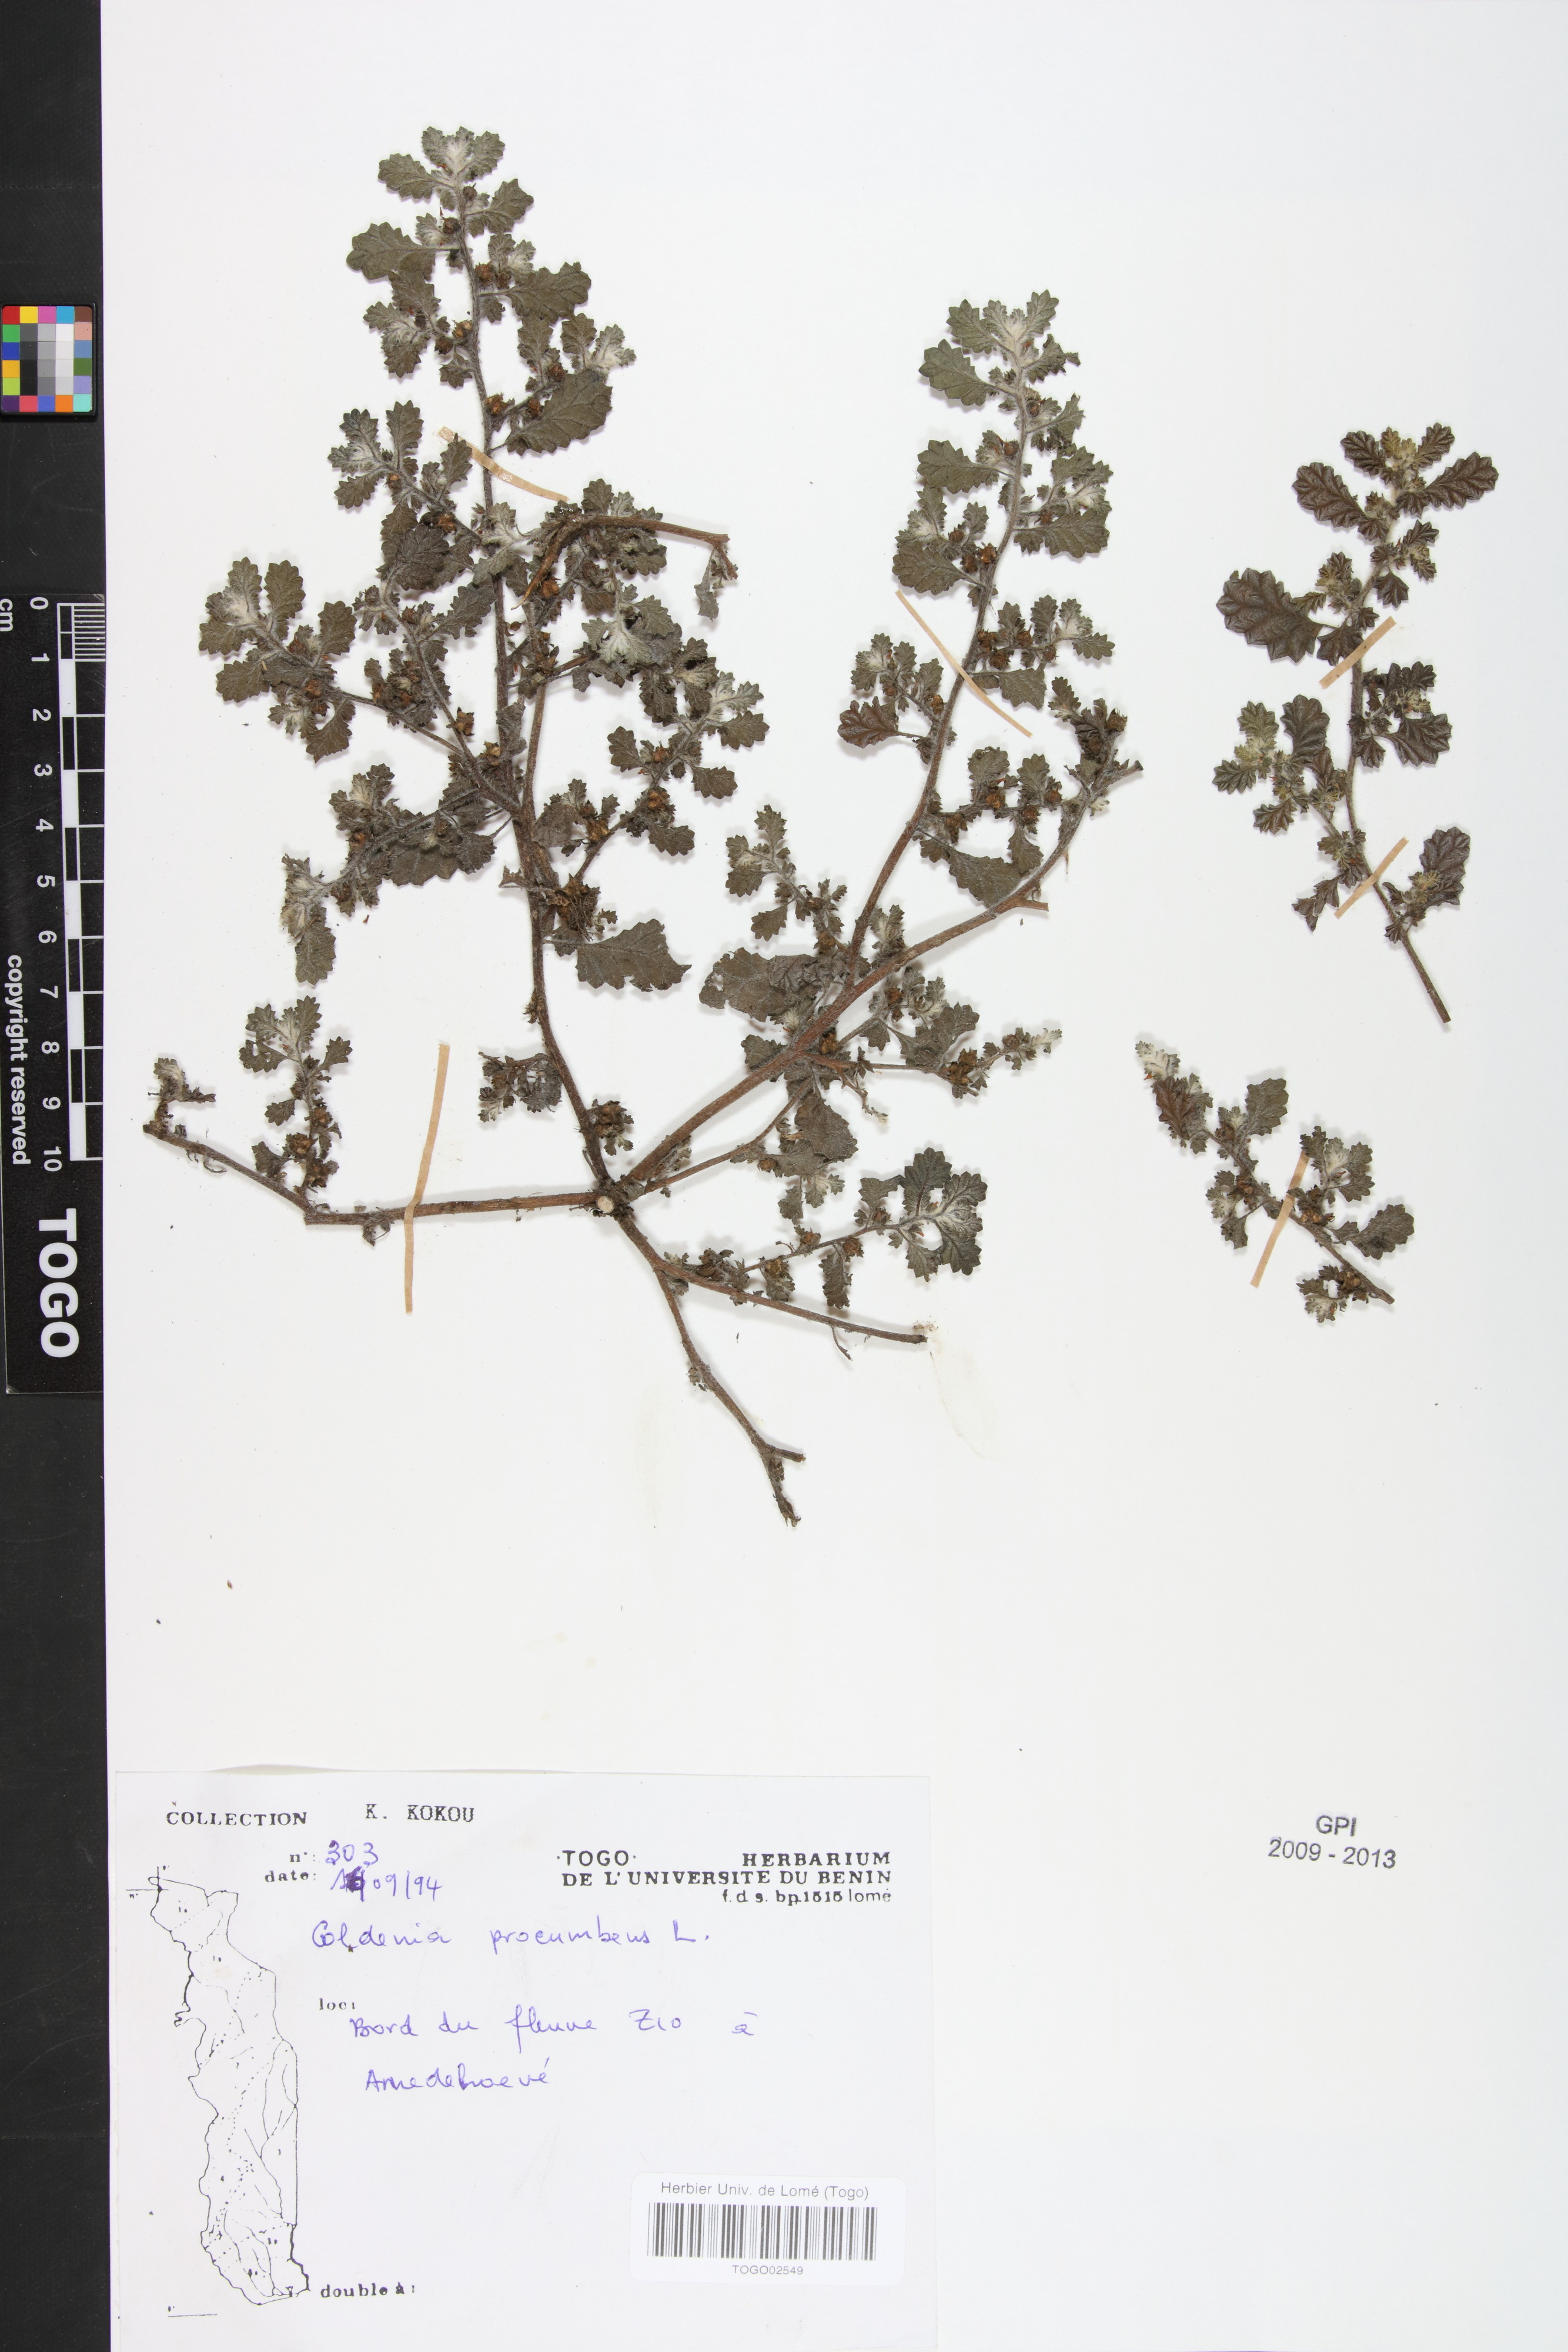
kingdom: Plantae
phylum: Tracheophyta
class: Magnoliopsida
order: Boraginales
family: Coldeniaceae
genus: Coldenia
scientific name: Coldenia procumbens
